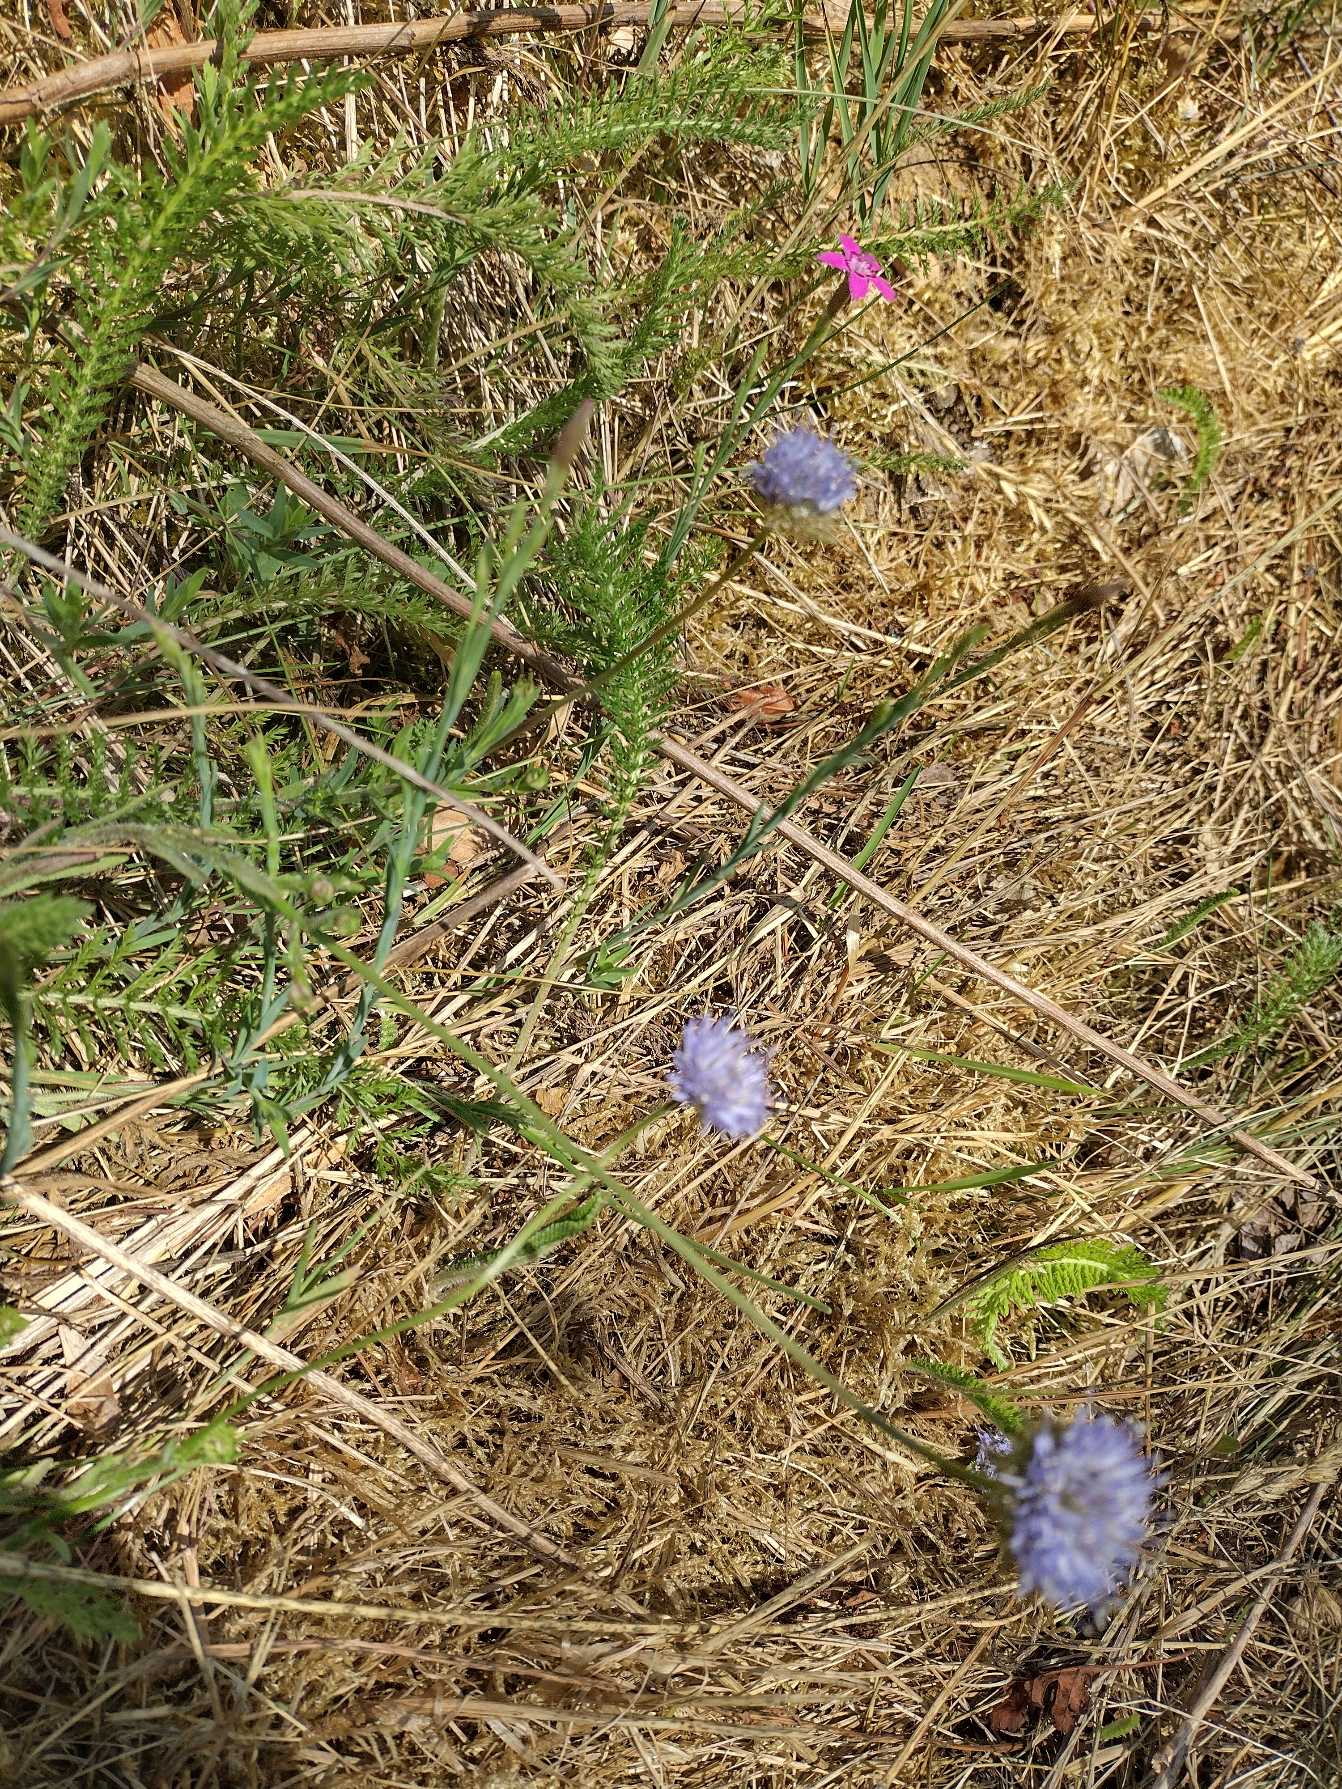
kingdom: Plantae
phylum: Tracheophyta
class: Magnoliopsida
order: Asterales
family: Campanulaceae
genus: Jasione
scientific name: Jasione montana
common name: Blåmunke
